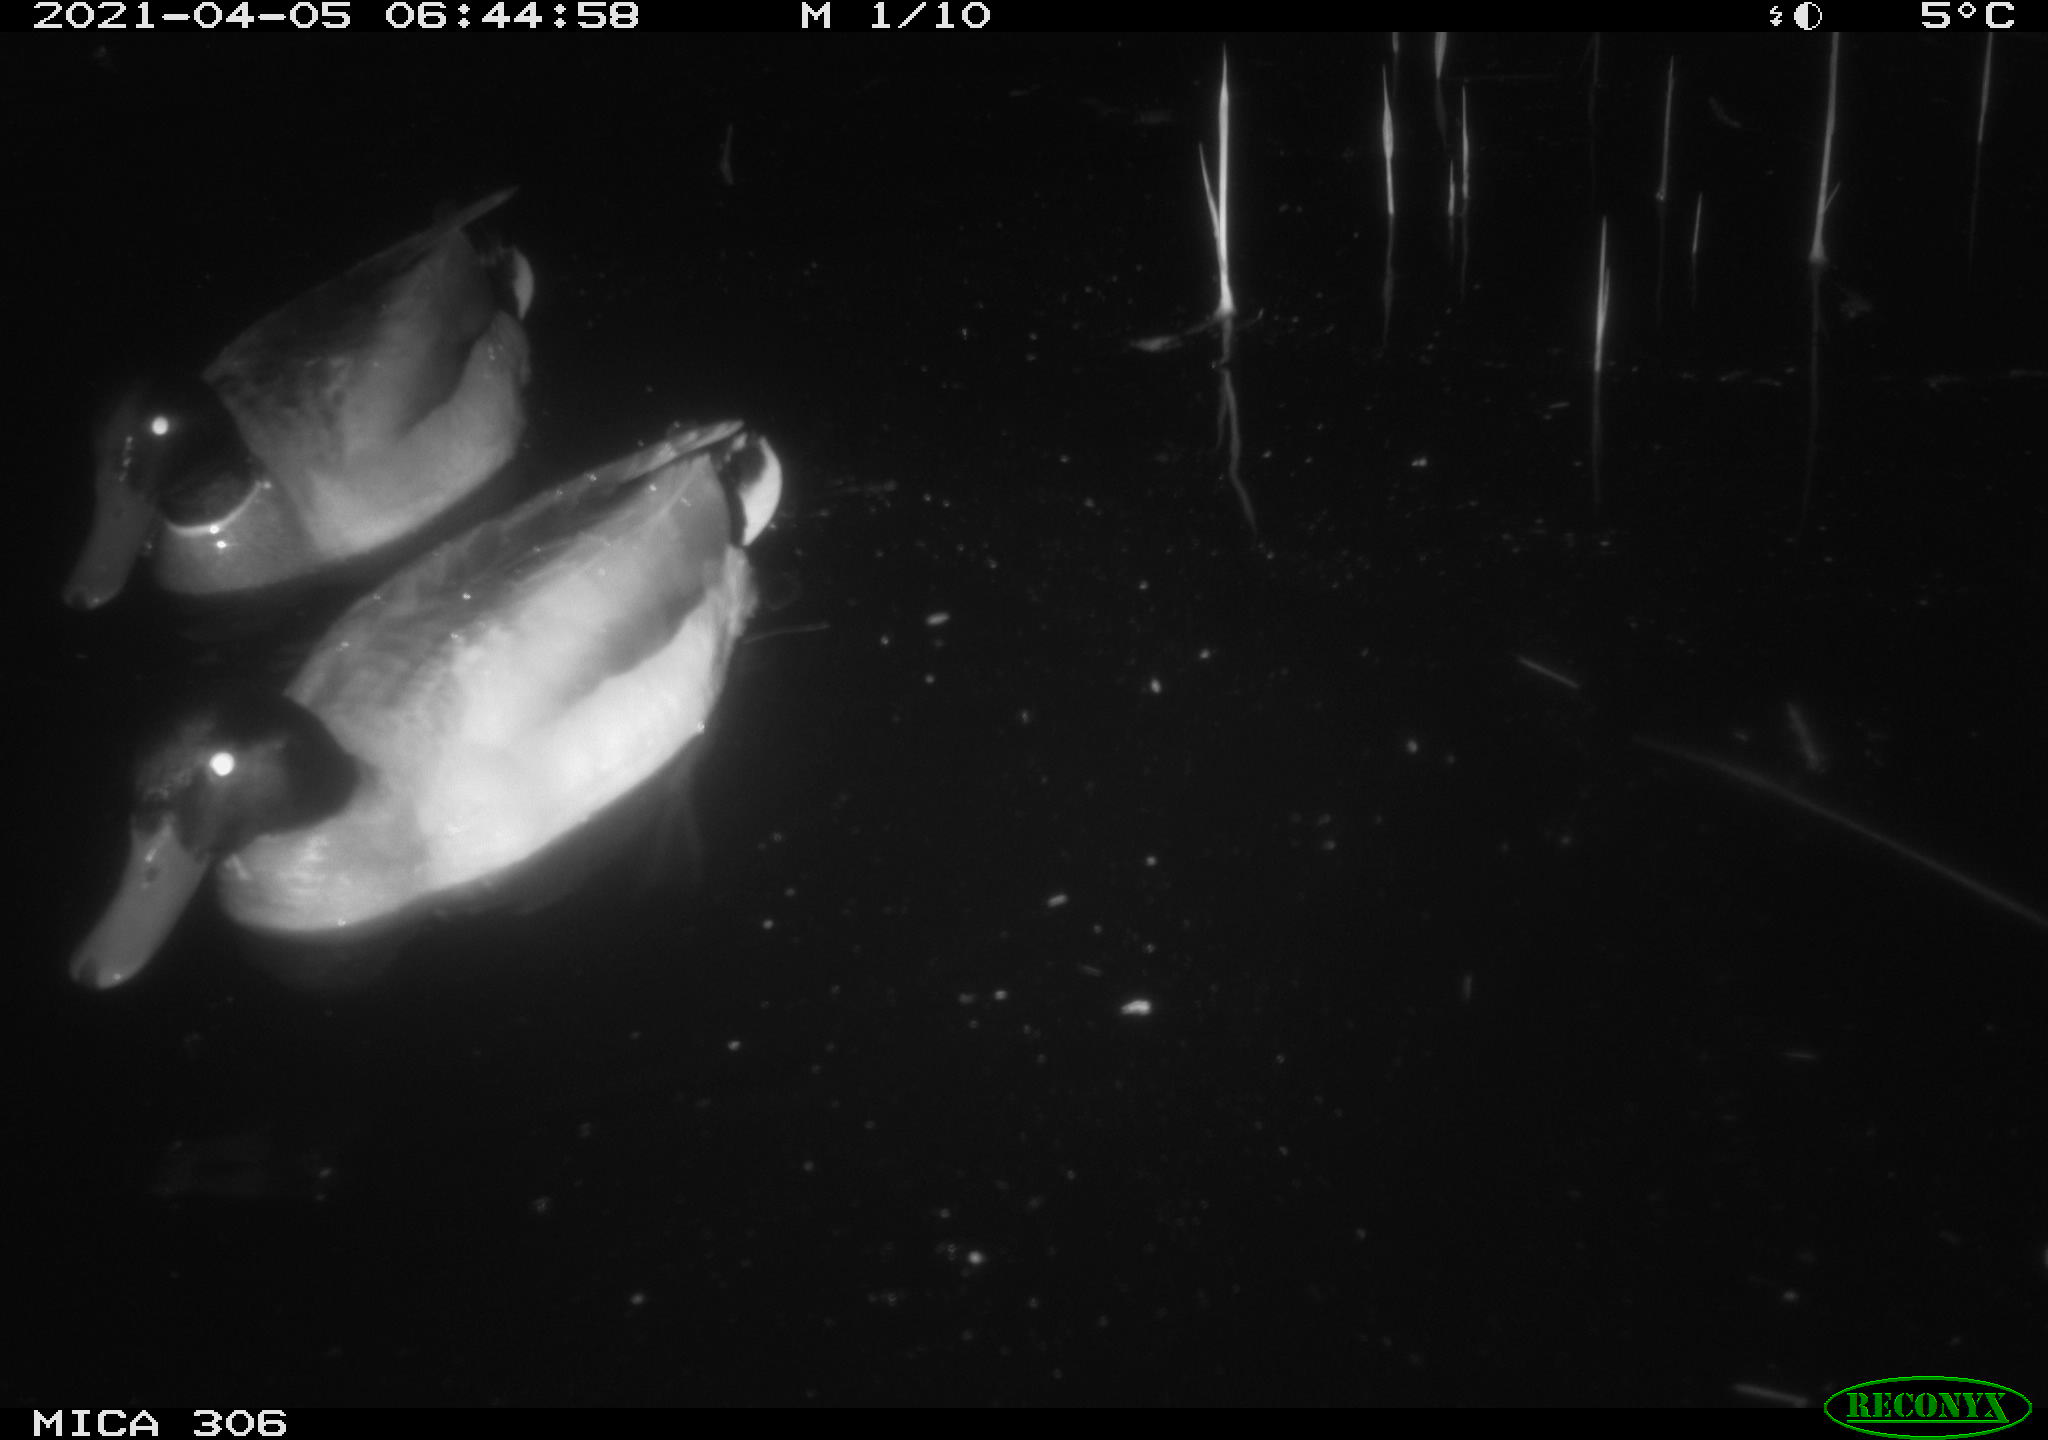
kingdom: Animalia
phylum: Chordata
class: Aves
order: Anseriformes
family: Anatidae
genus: Anas
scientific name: Anas
